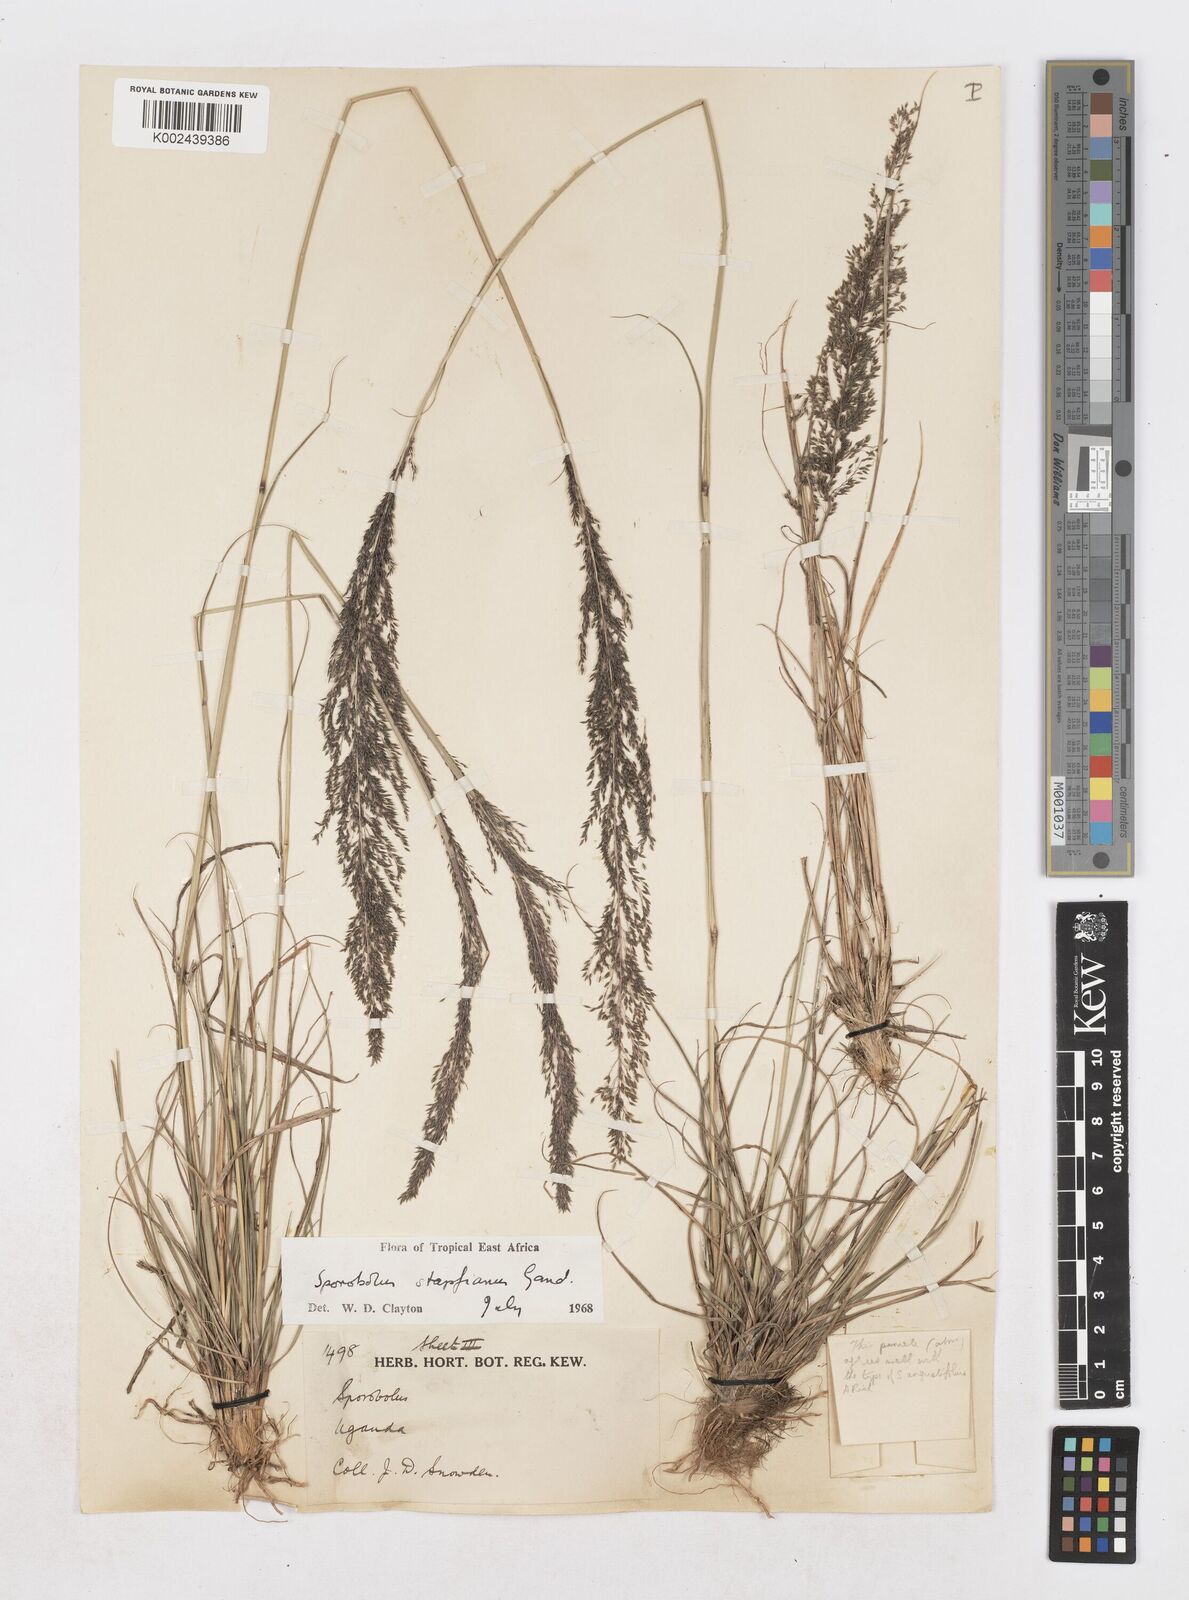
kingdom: Plantae
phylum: Tracheophyta
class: Liliopsida
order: Poales
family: Poaceae
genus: Sporobolus
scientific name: Sporobolus stapfianus
